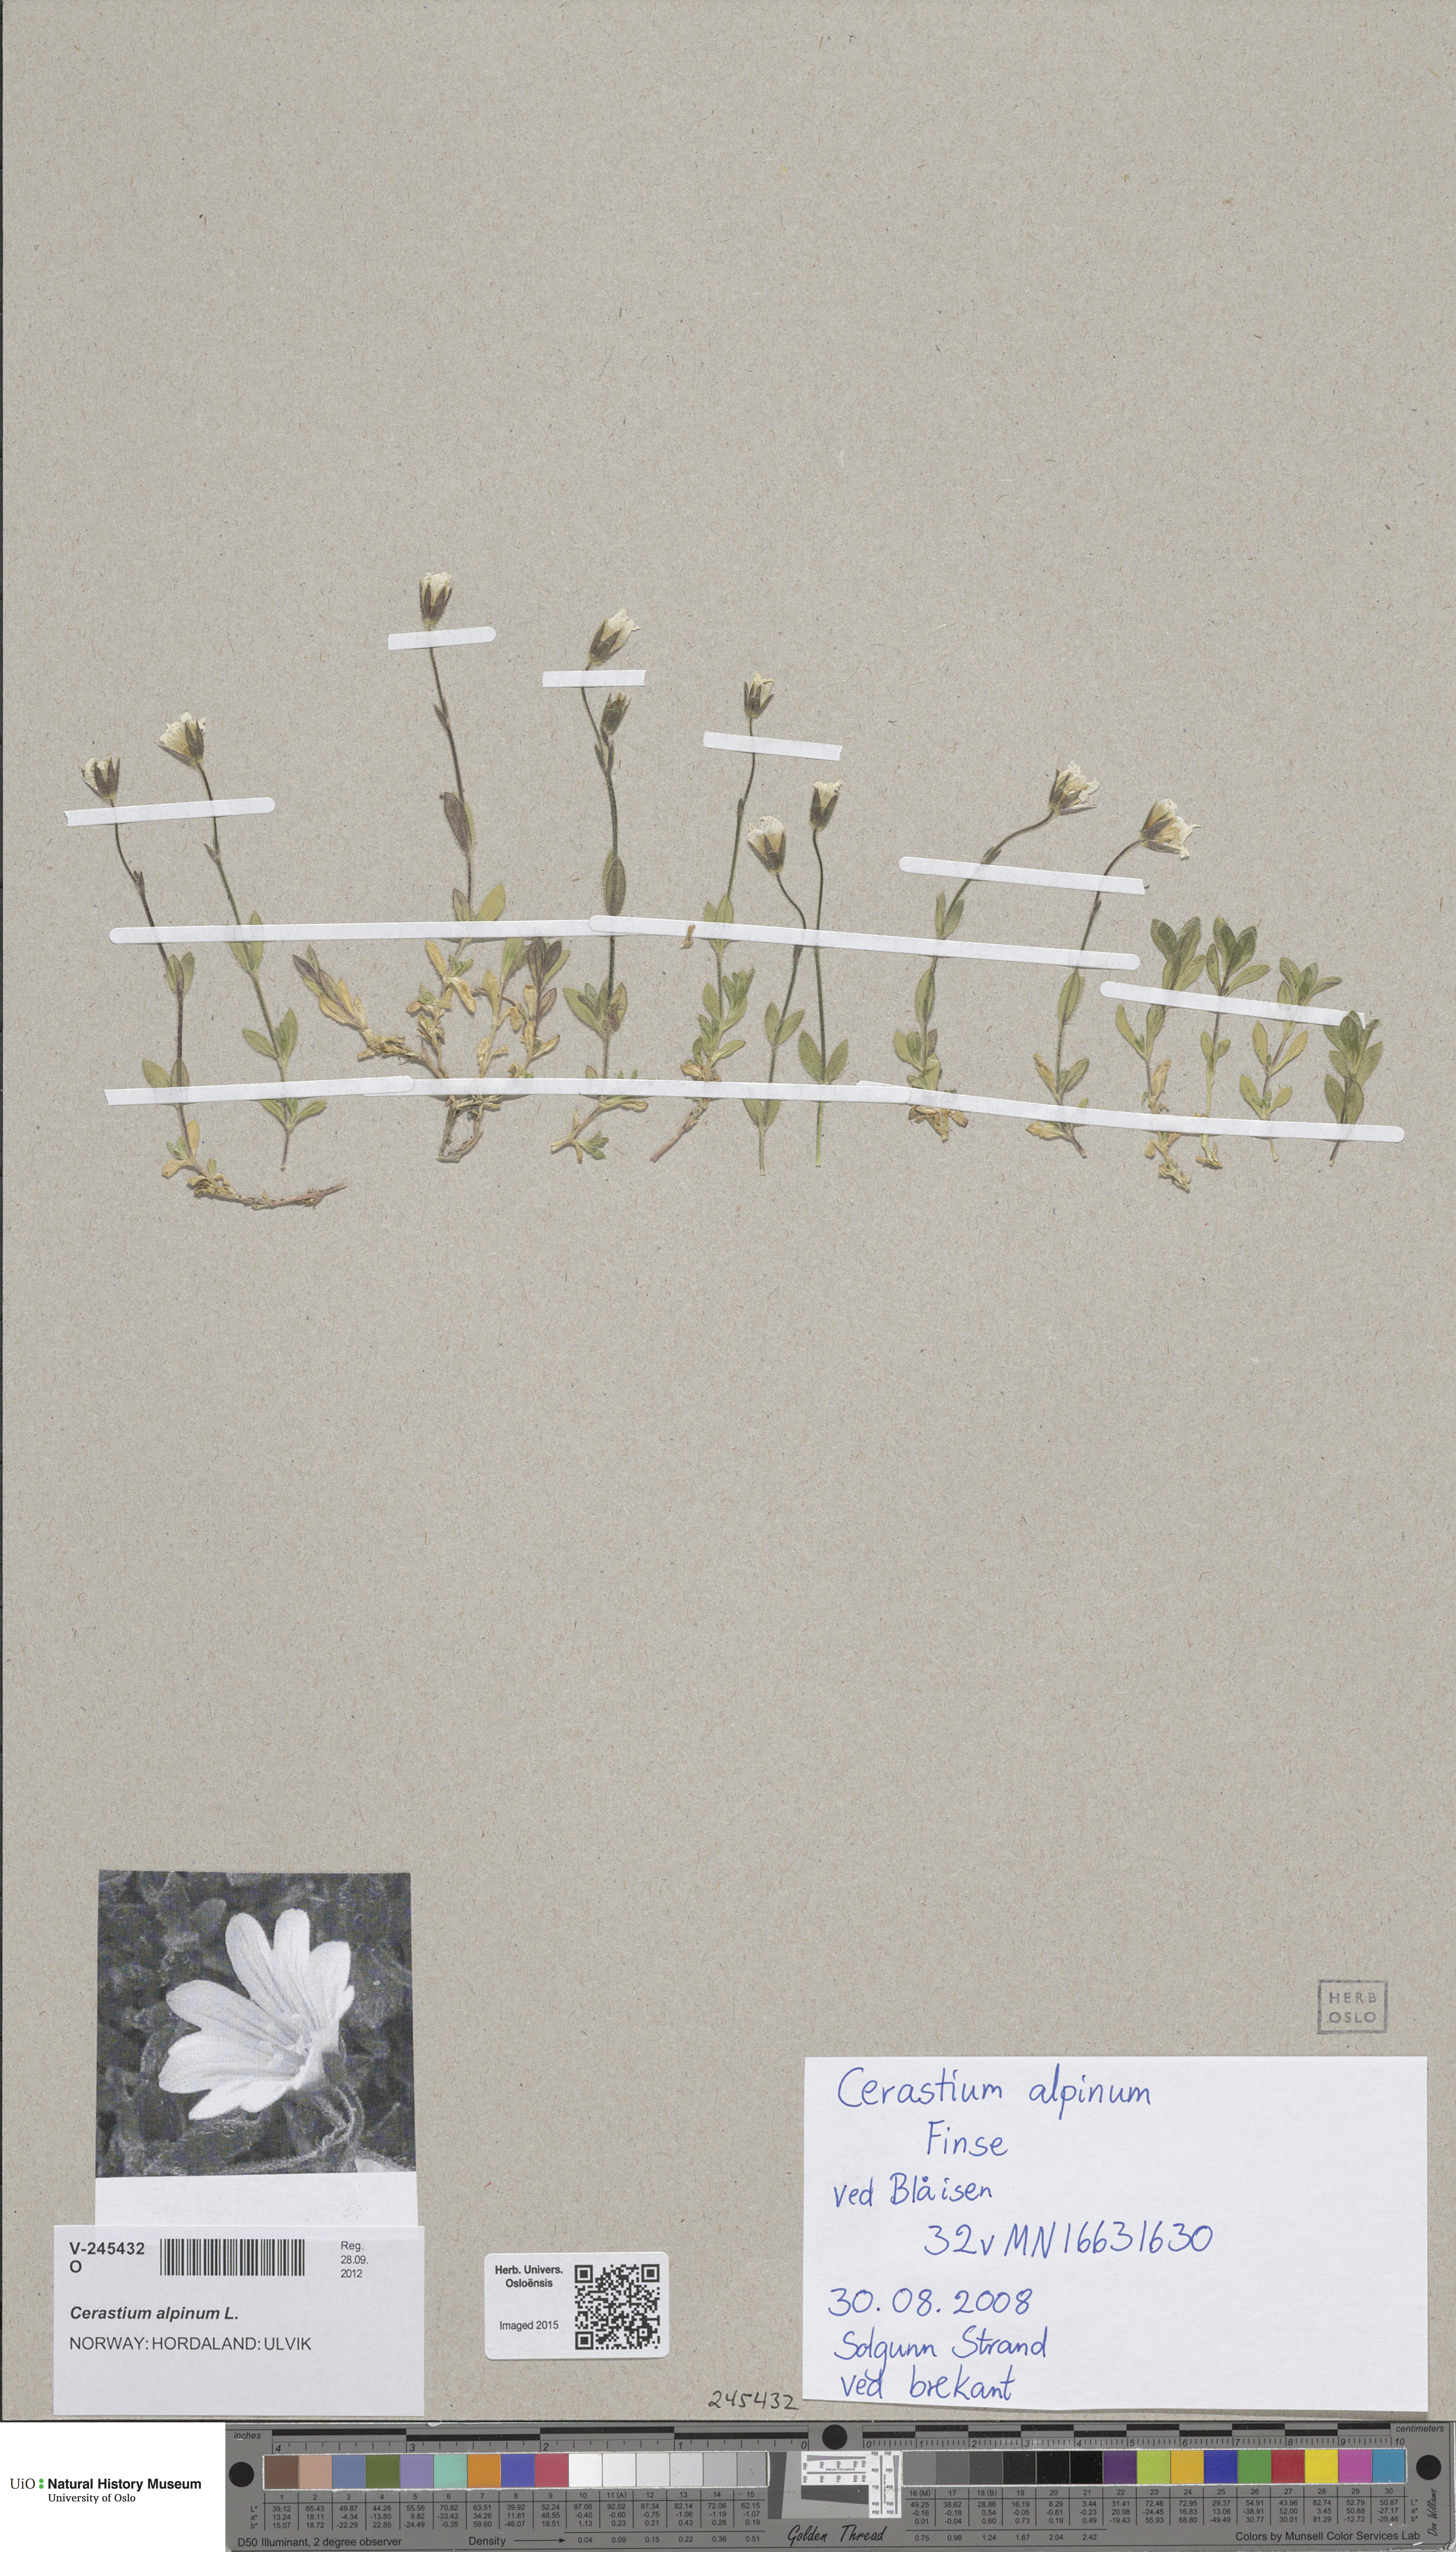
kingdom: Plantae
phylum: Tracheophyta
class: Magnoliopsida
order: Caryophyllales
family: Caryophyllaceae
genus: Cerastium
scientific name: Cerastium alpinum
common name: Alpine mouse-ear
